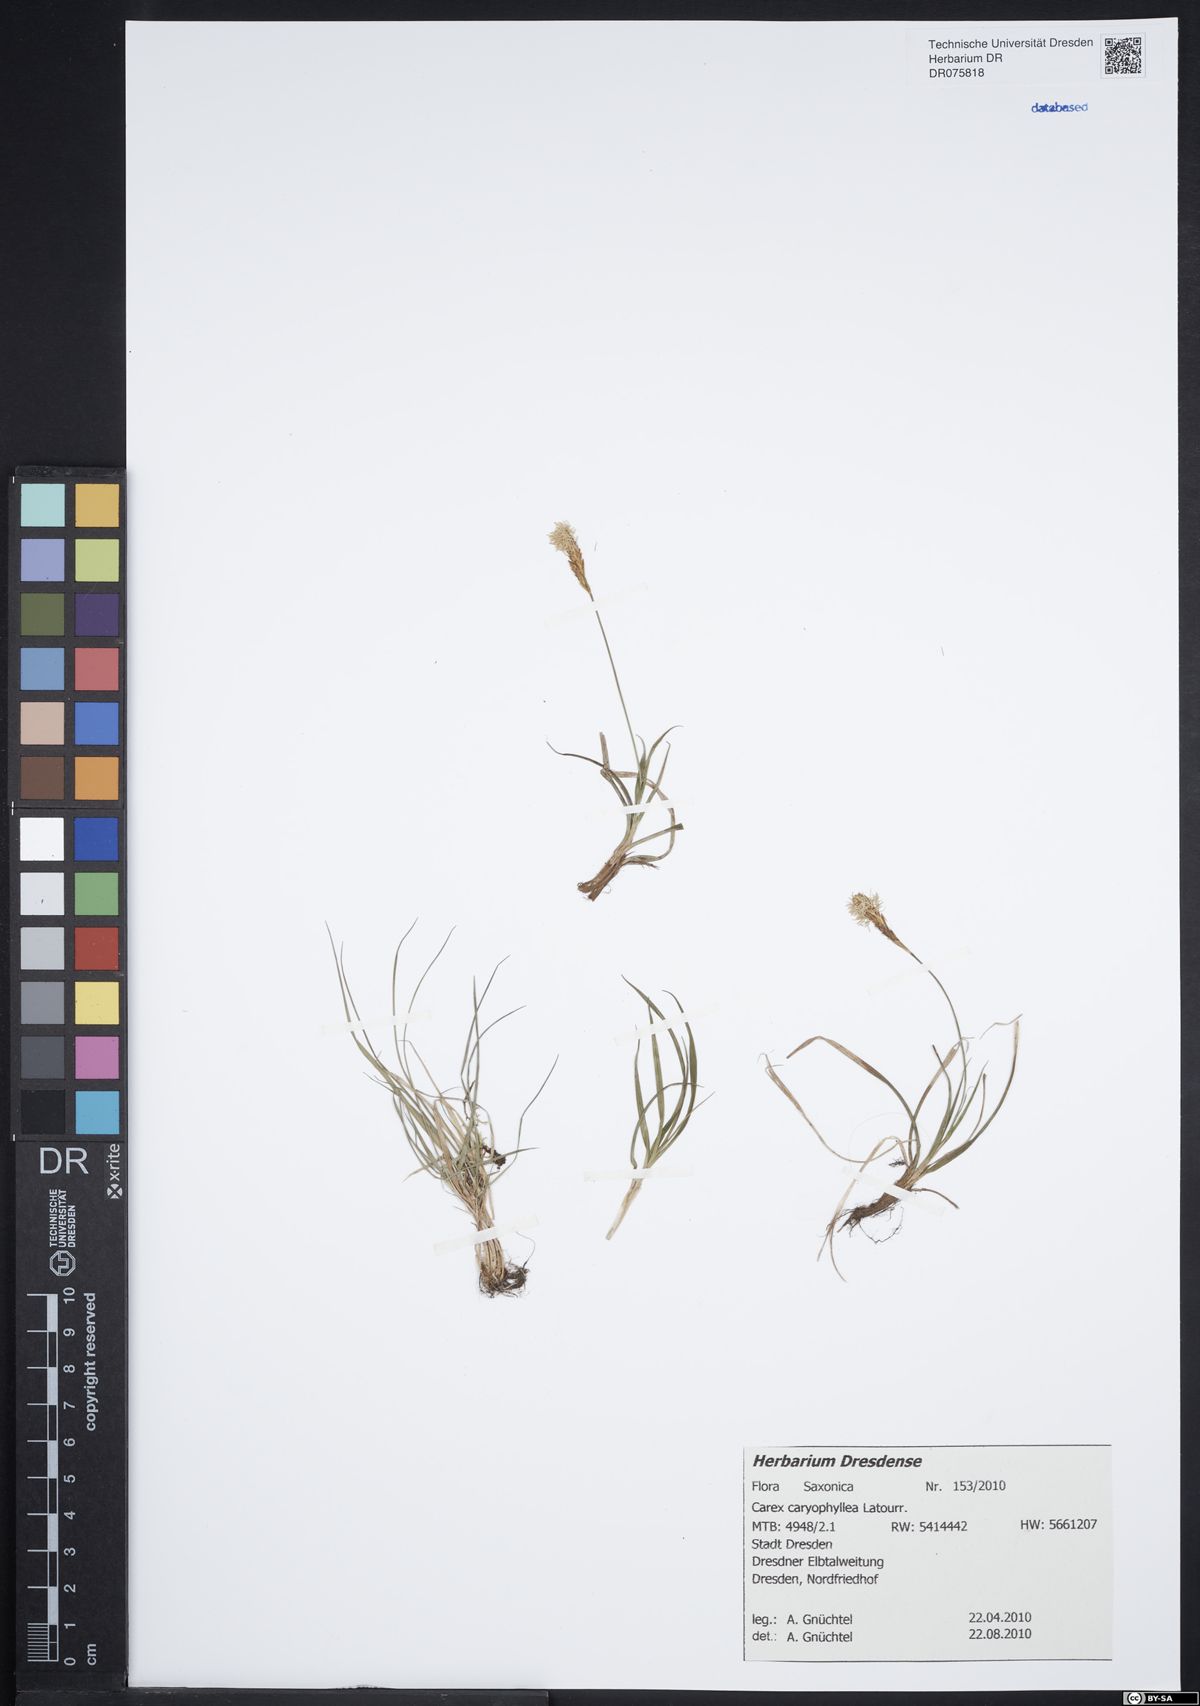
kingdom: Plantae
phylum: Tracheophyta
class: Liliopsida
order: Poales
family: Cyperaceae
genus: Carex
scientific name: Carex caryophyllea
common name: Spring sedge
